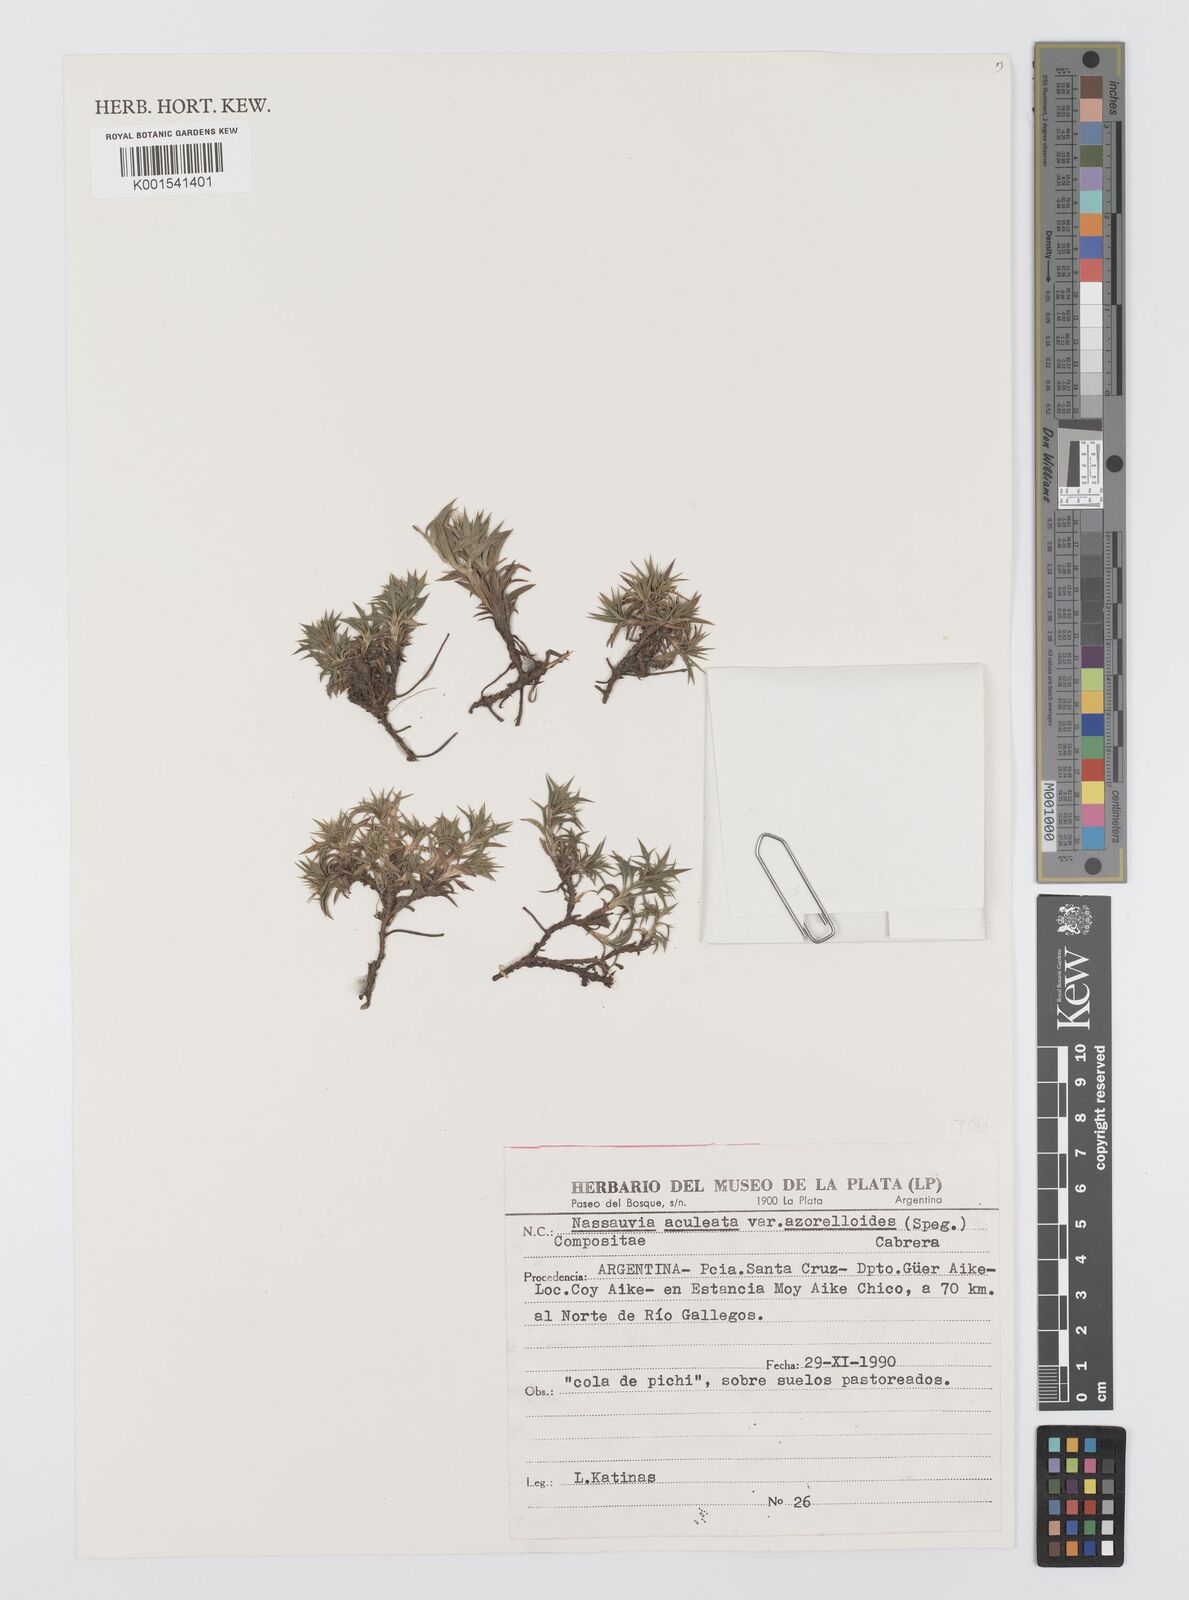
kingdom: Plantae
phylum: Tracheophyta
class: Magnoliopsida
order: Asterales
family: Asteraceae
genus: Nassauvia
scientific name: Nassauvia aculeata
